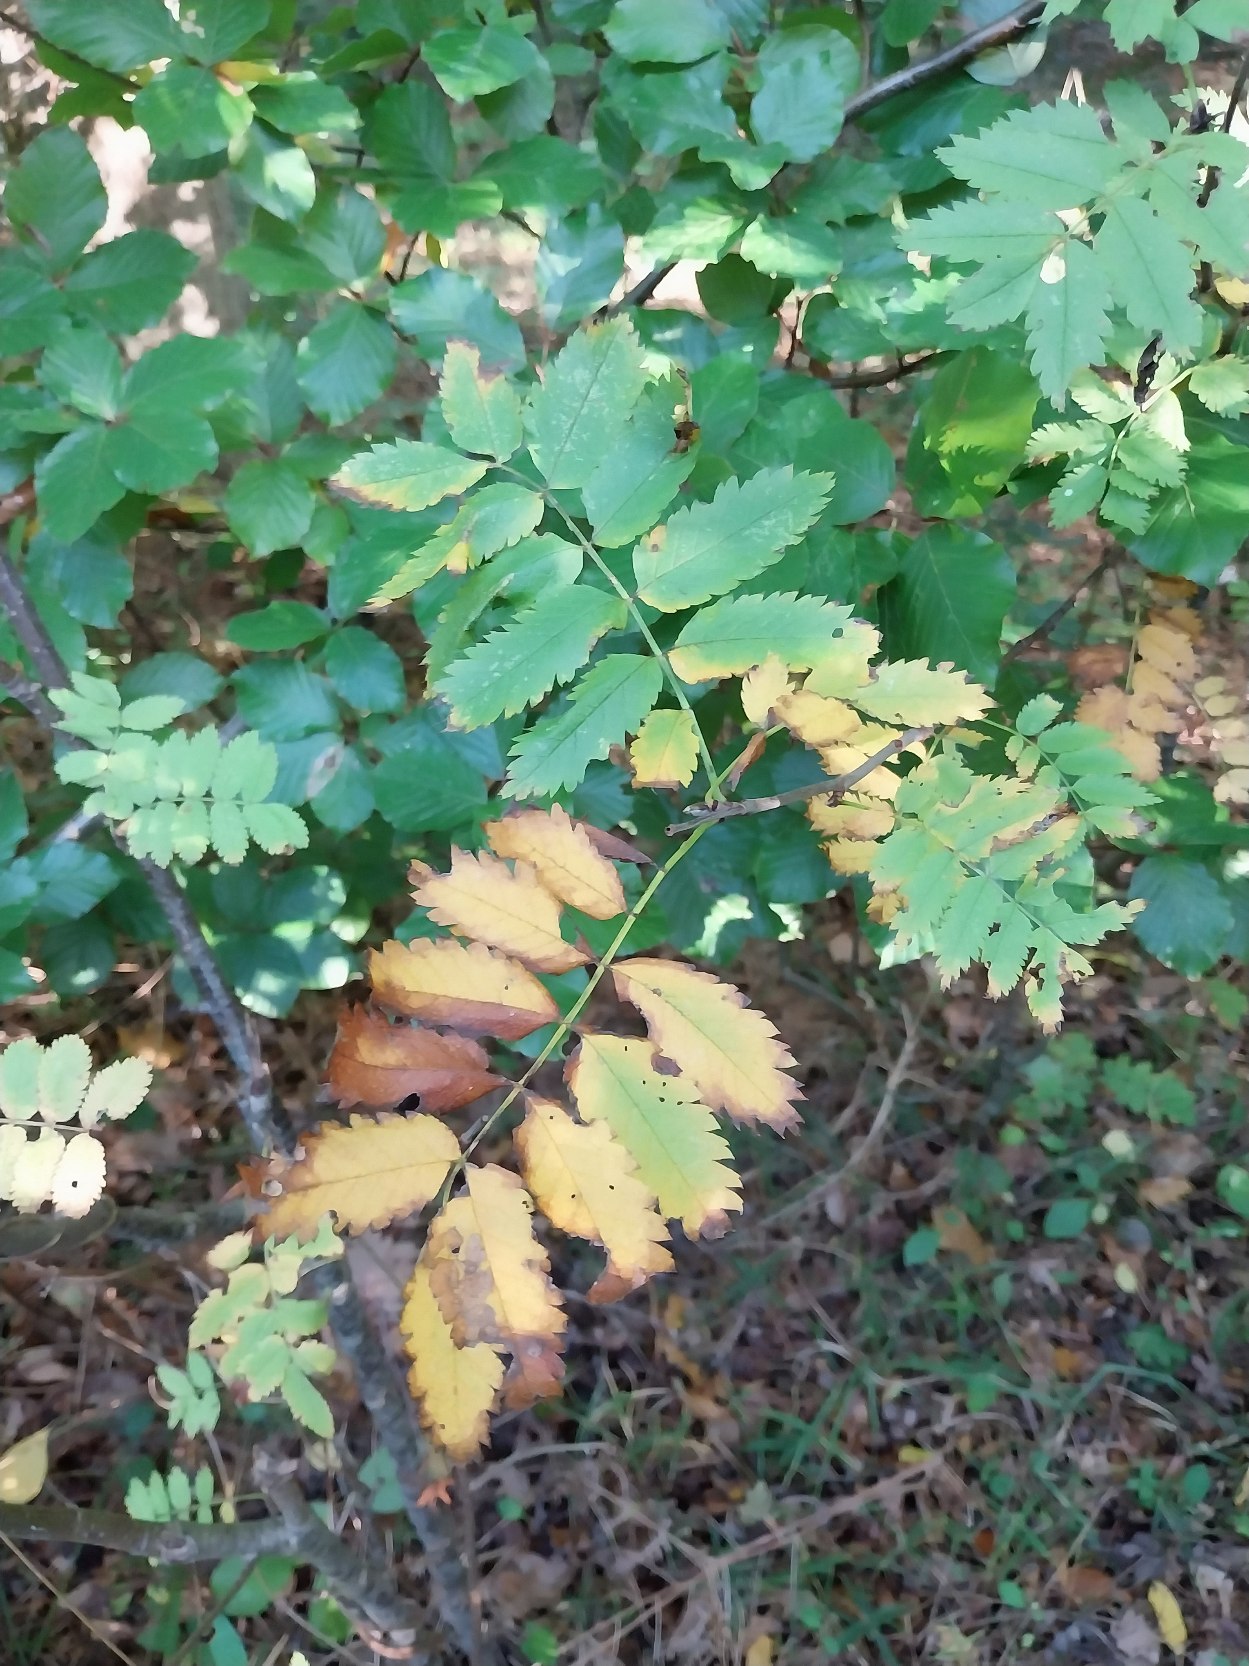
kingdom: Plantae
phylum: Tracheophyta
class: Magnoliopsida
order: Rosales
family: Rosaceae
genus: Sorbus
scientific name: Sorbus aucuparia
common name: Almindelig røn
